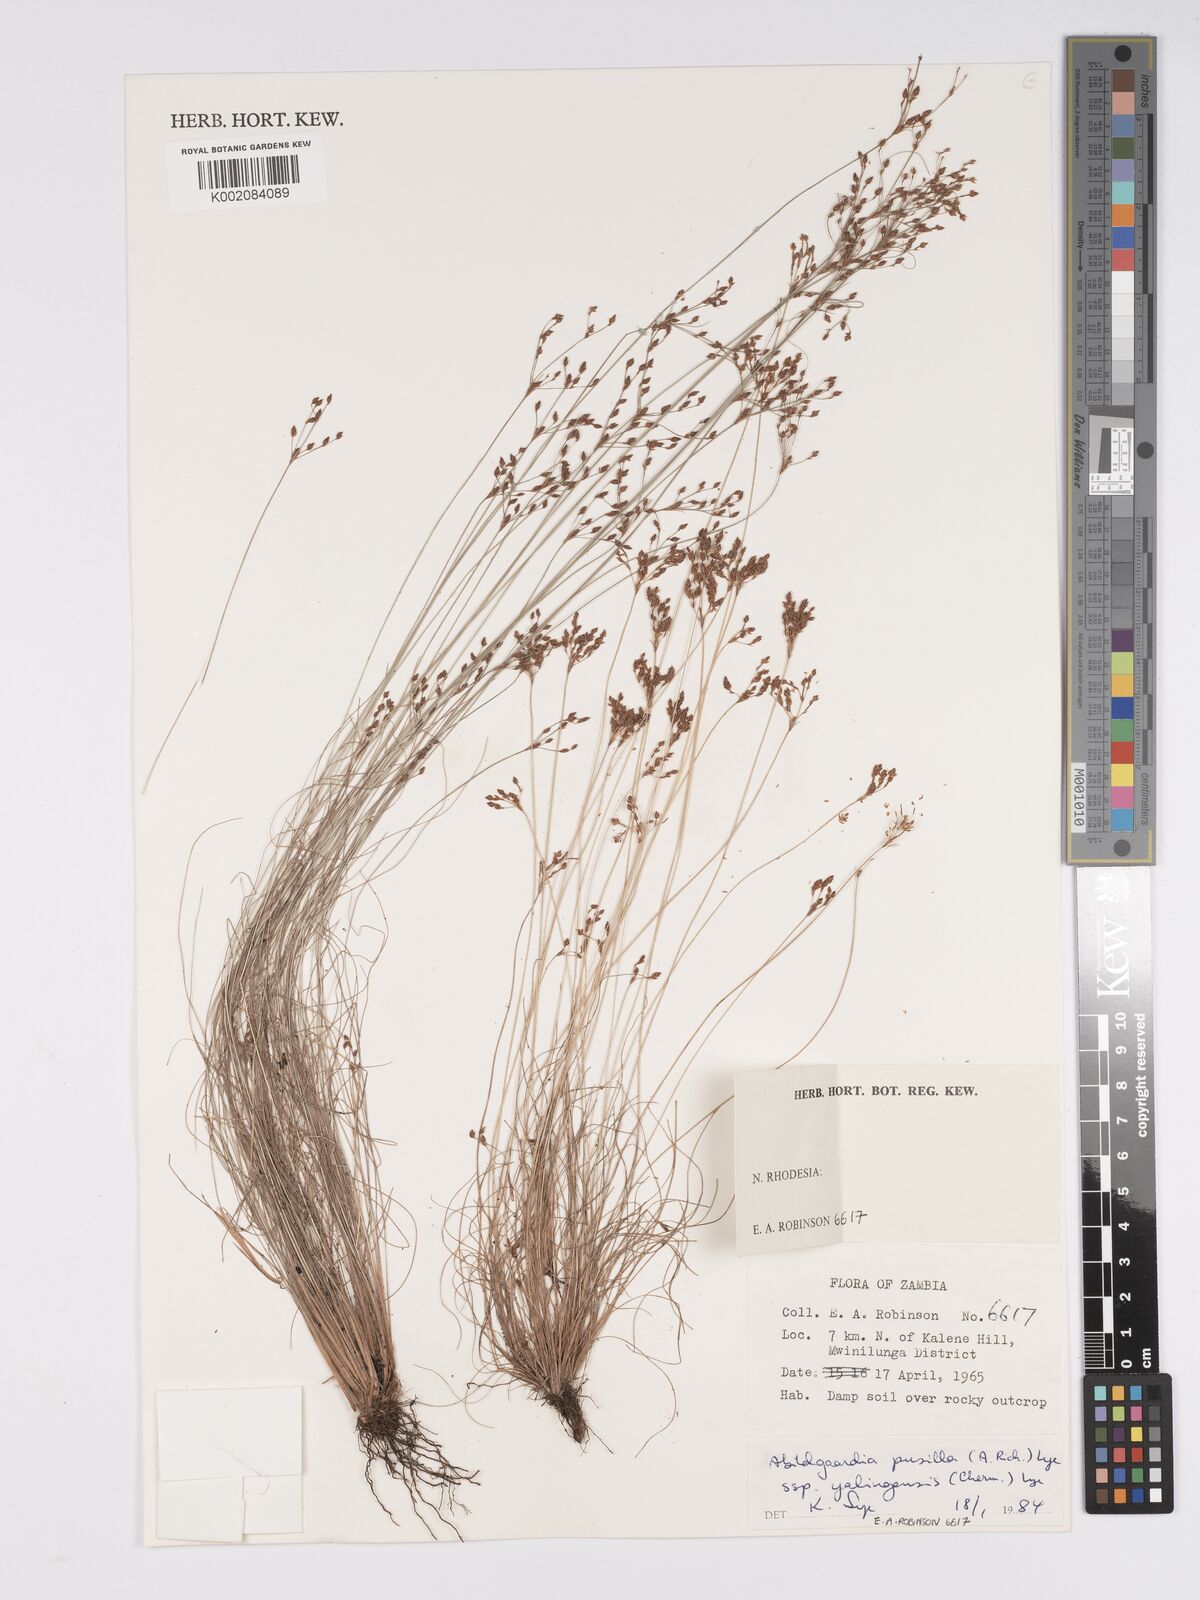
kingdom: Plantae
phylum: Tracheophyta
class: Liliopsida
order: Poales
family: Cyperaceae
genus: Bulbostylis
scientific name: Bulbostylis pusilla
